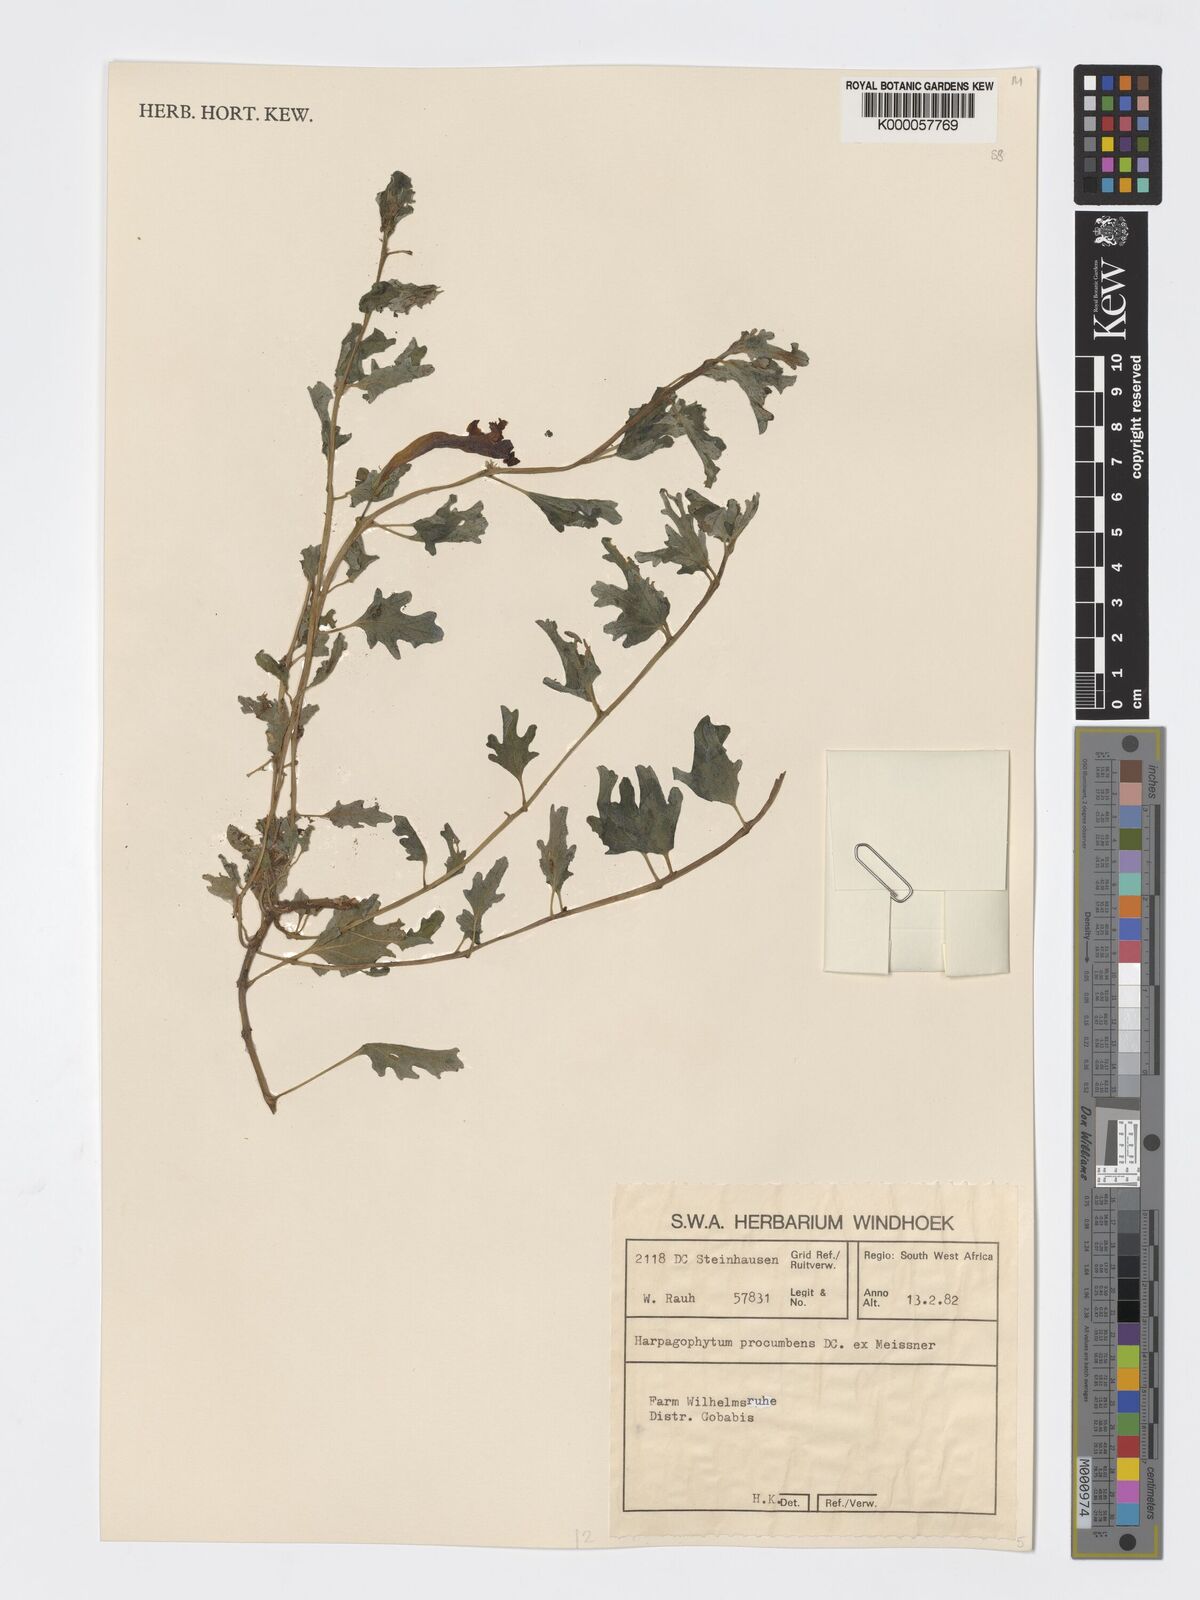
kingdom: Plantae
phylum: Tracheophyta
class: Magnoliopsida
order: Lamiales
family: Pedaliaceae
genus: Harpagophytum
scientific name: Harpagophytum procumbens
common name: Grappleplant
